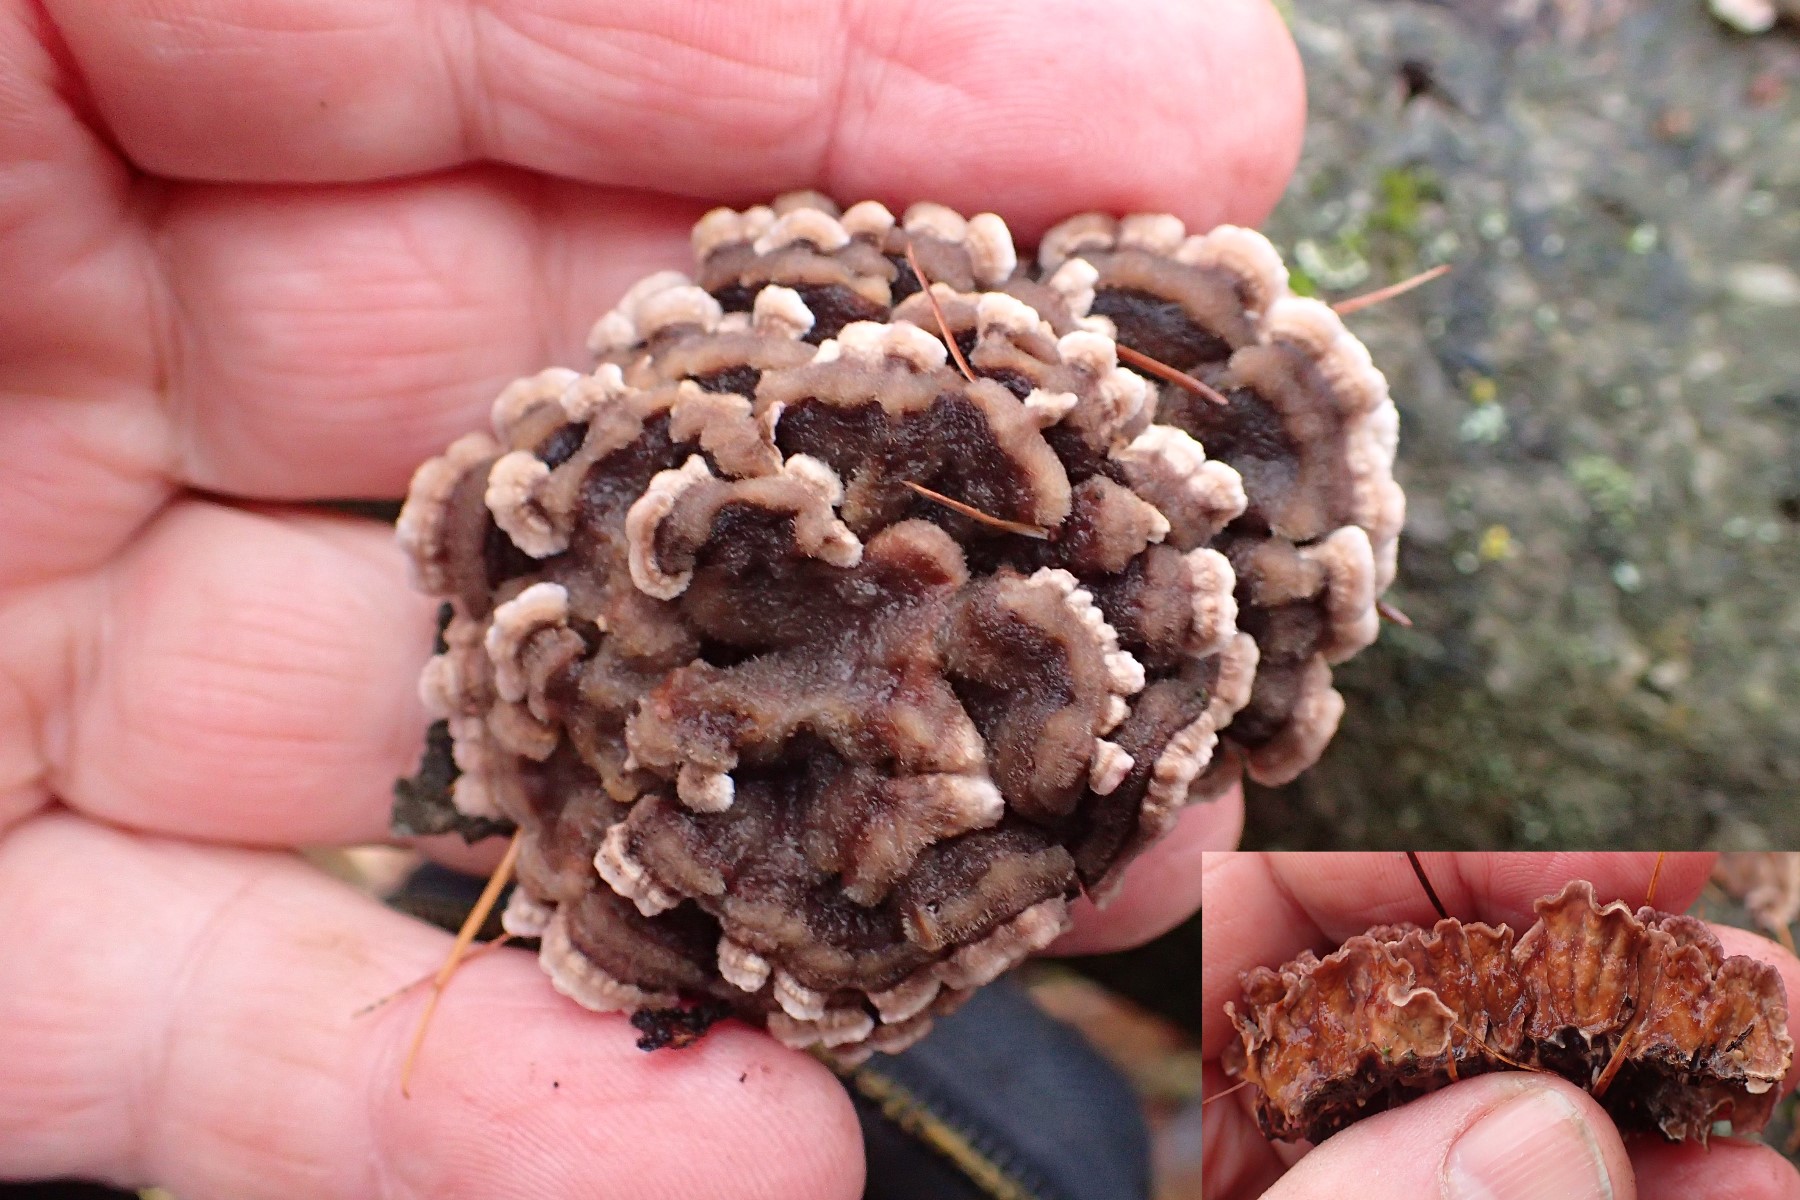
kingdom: Fungi
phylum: Basidiomycota
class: Agaricomycetes
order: Russulales
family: Stereaceae
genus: Stereum
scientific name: Stereum rugosum
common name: rynket lædersvamp
